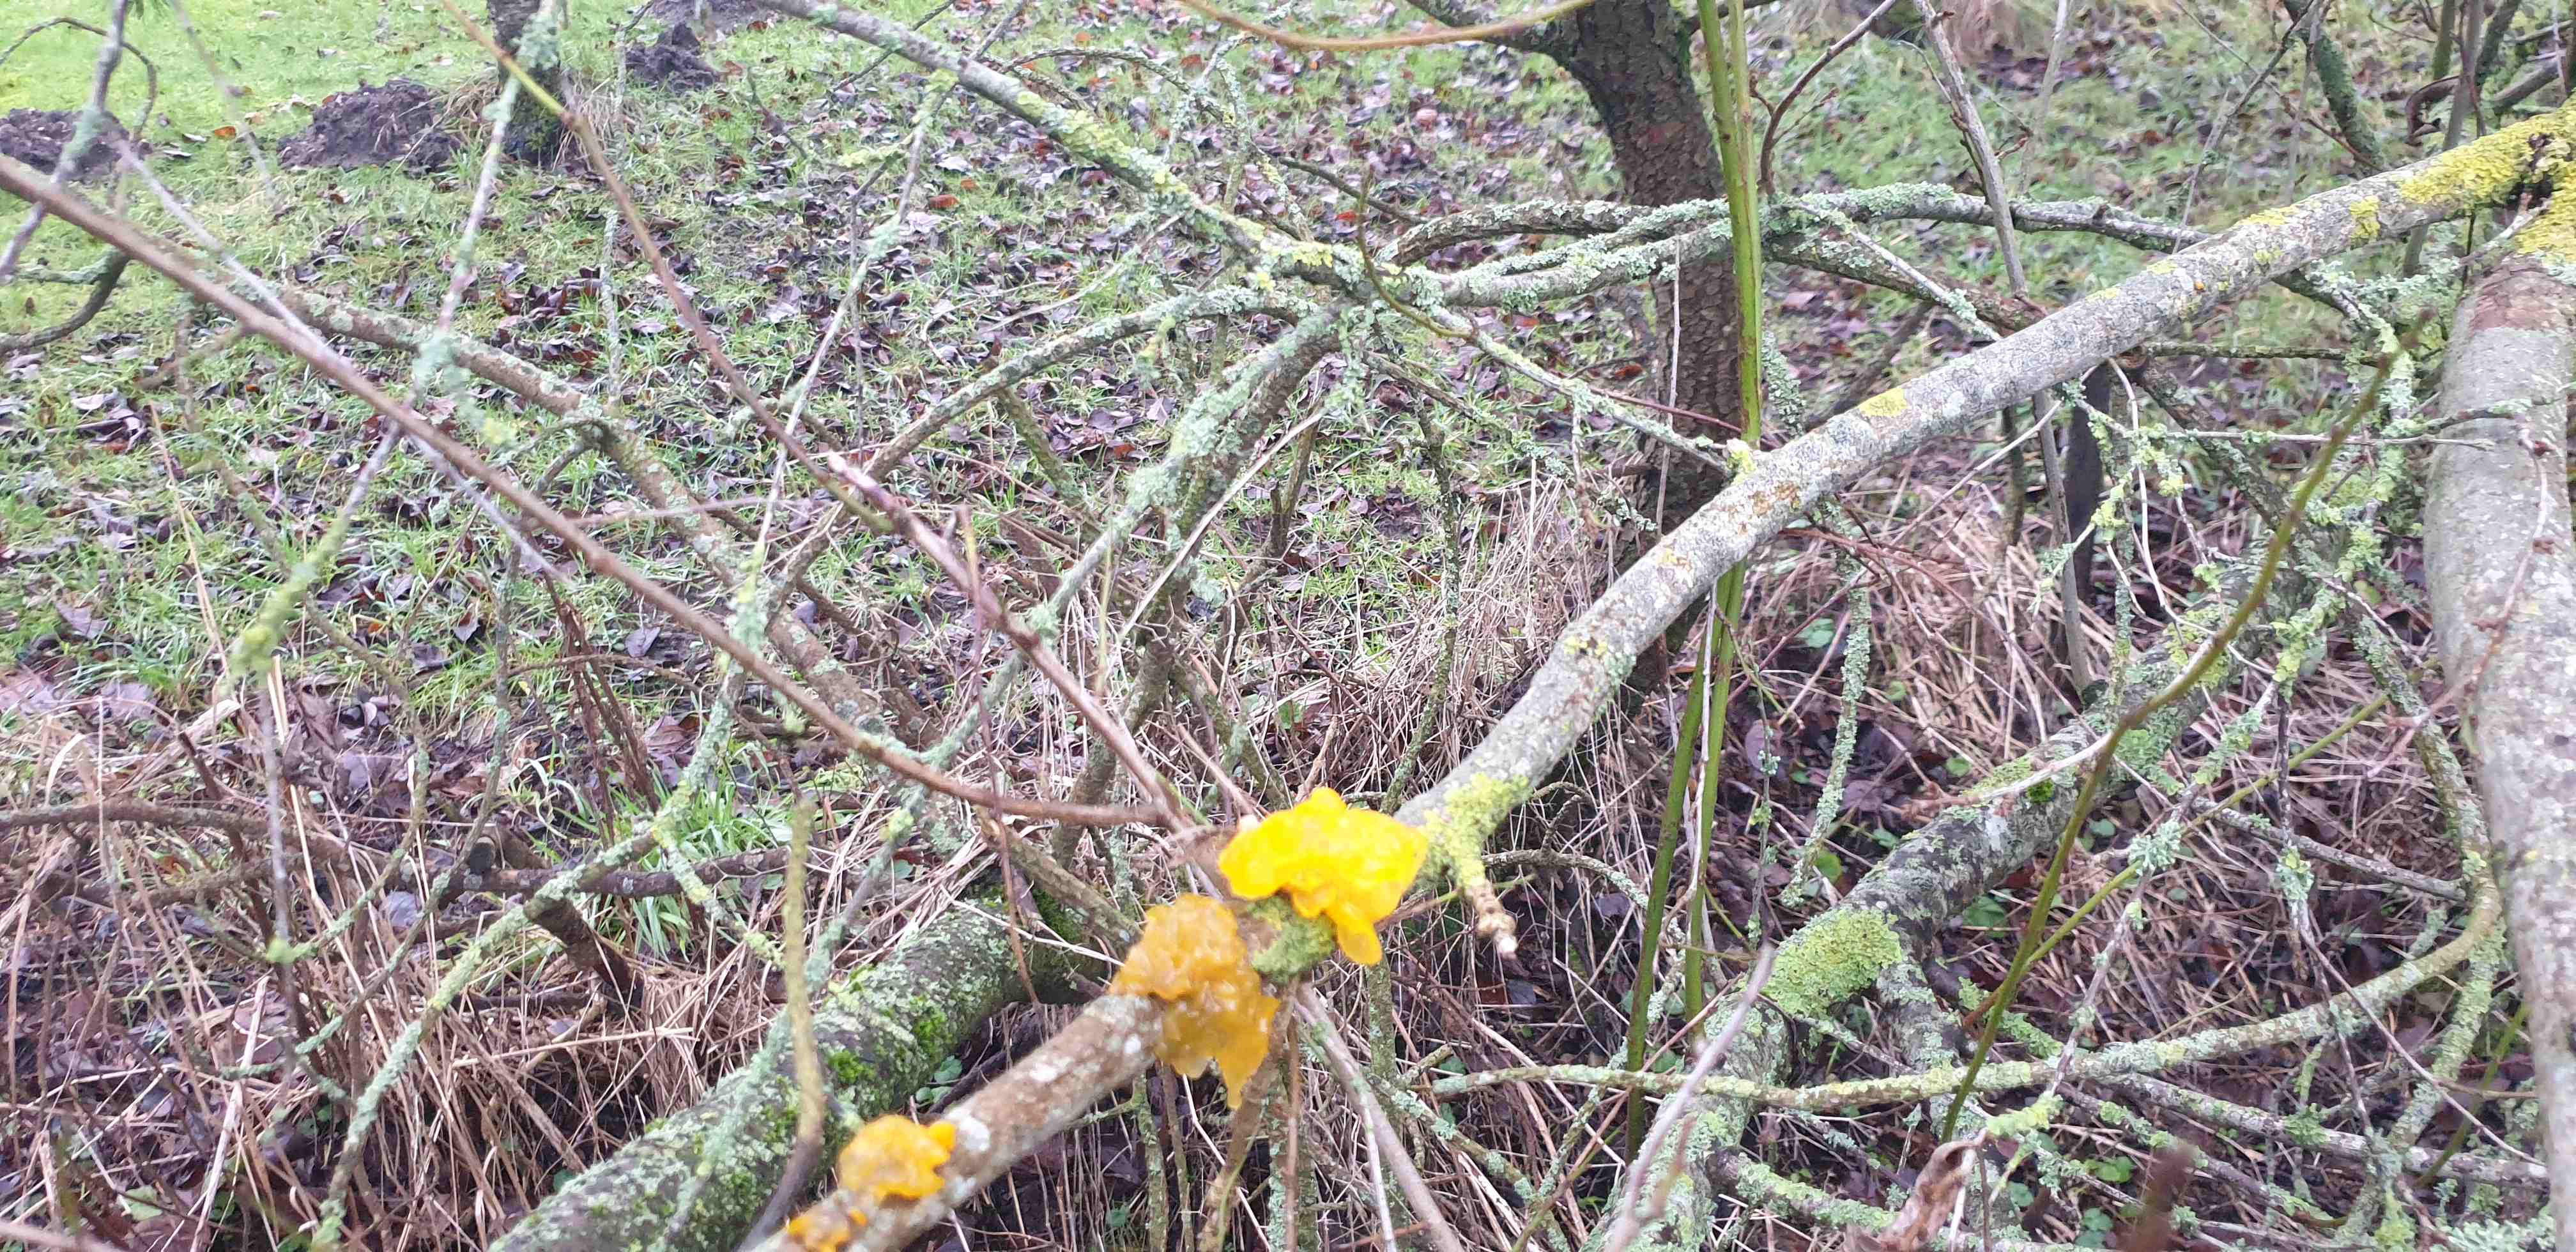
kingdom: Fungi
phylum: Basidiomycota
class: Tremellomycetes
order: Tremellales
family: Tremellaceae
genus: Tremella
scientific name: Tremella mesenterica
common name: gul bævresvamp
